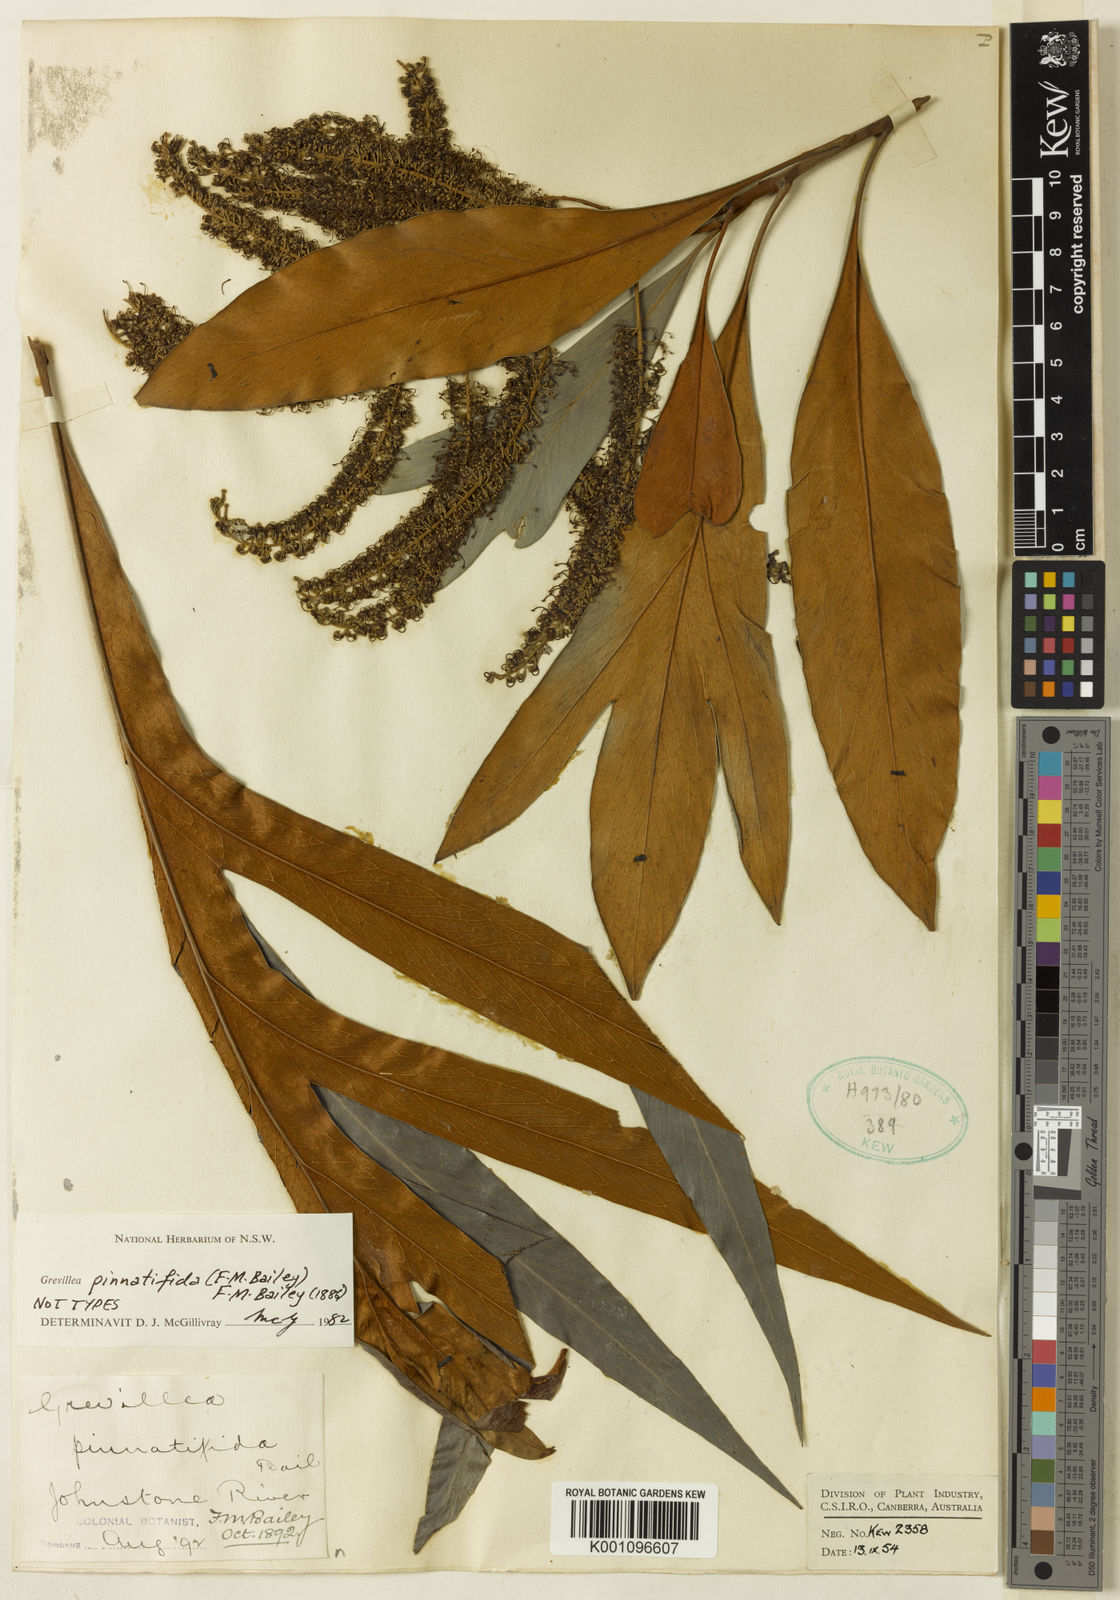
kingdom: Plantae
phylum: Tracheophyta
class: Magnoliopsida
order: Proteales
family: Proteaceae
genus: Grevillea
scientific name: Grevillea baileyana
